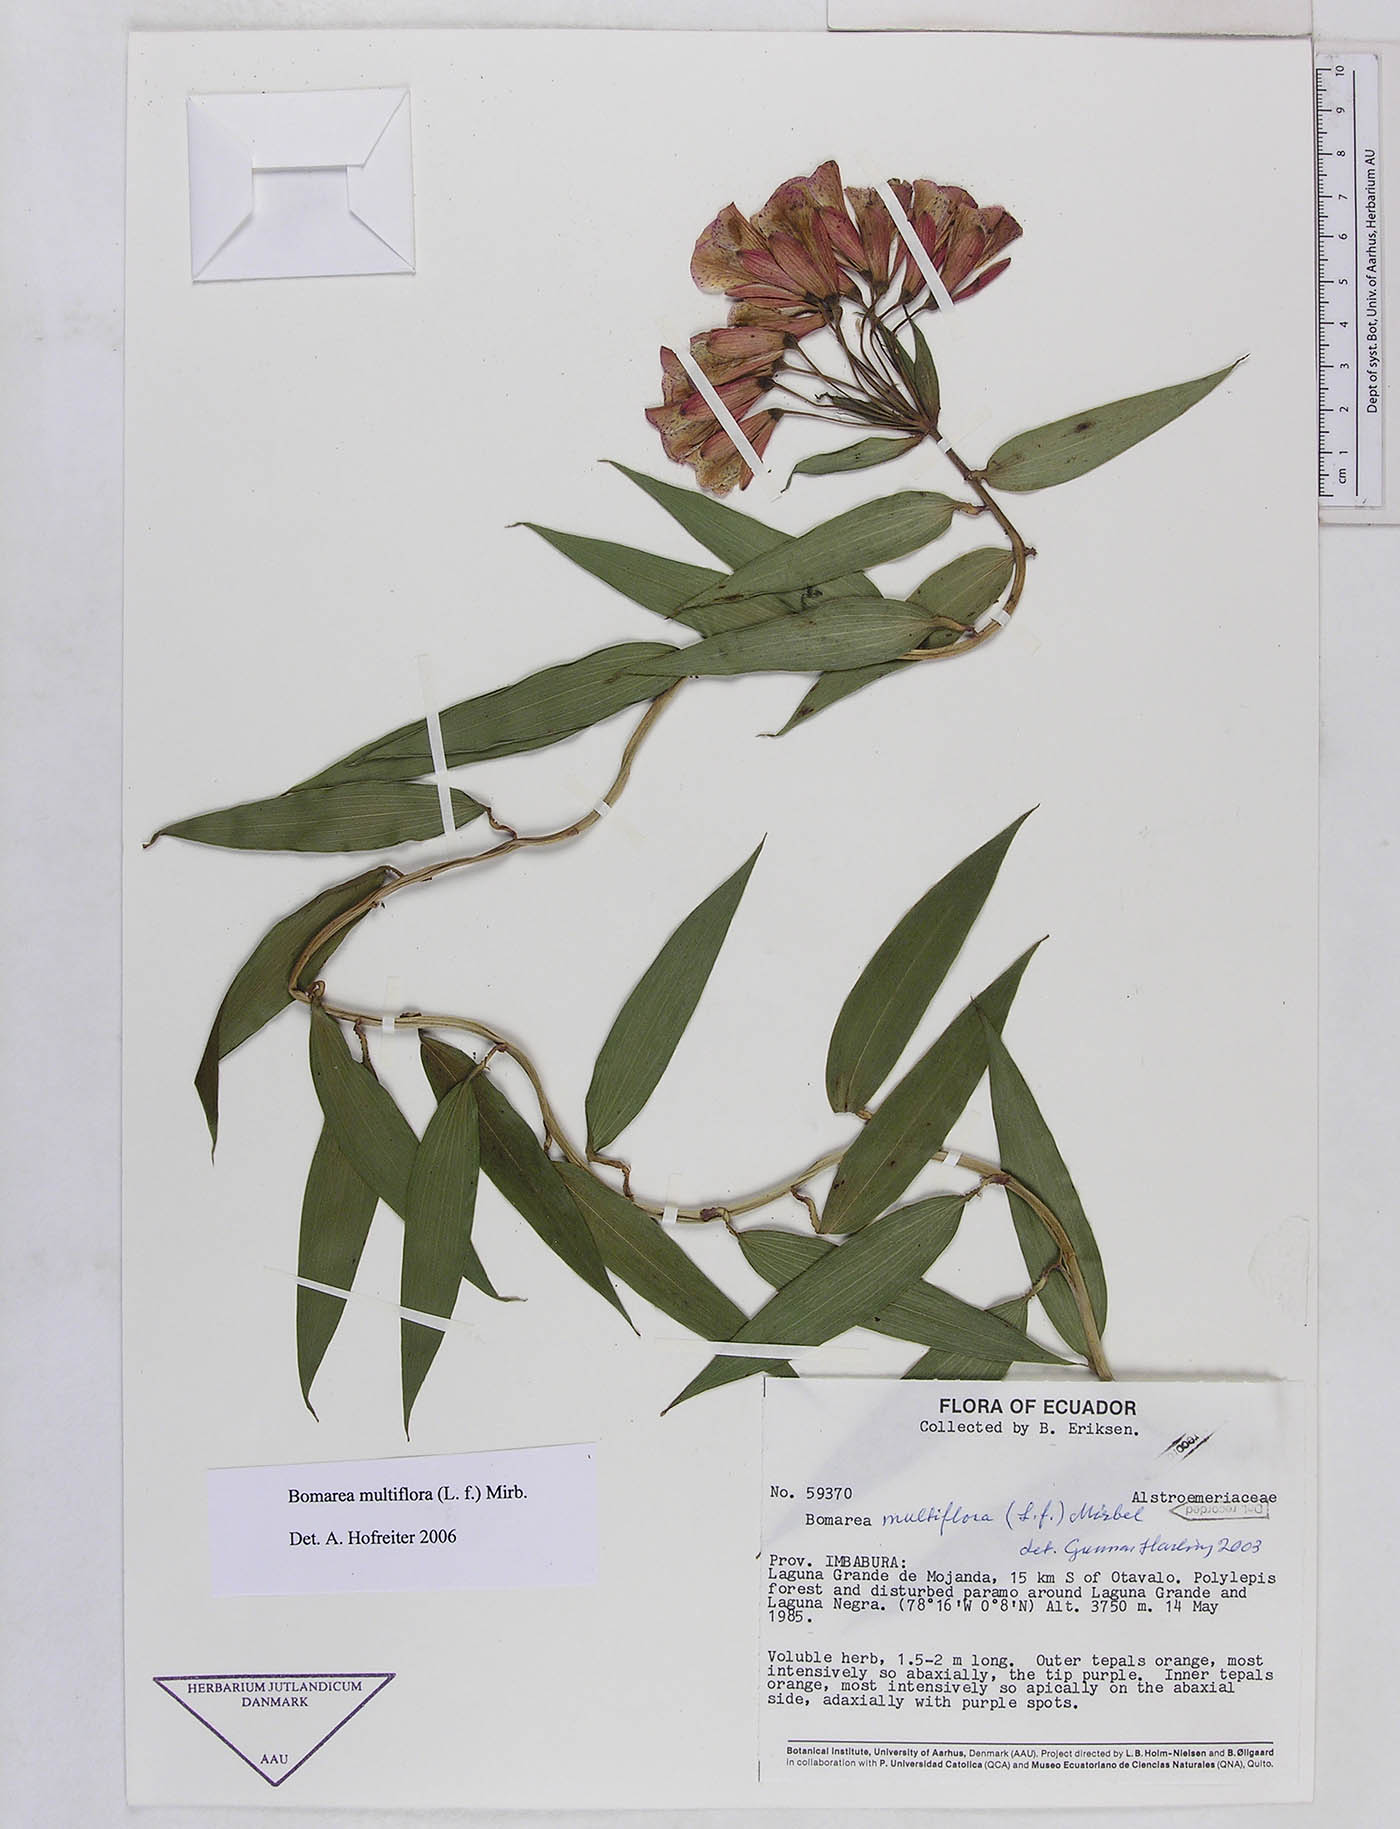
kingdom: Plantae
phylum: Tracheophyta
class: Liliopsida
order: Liliales
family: Alstroemeriaceae
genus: Bomarea
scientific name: Bomarea multiflora
